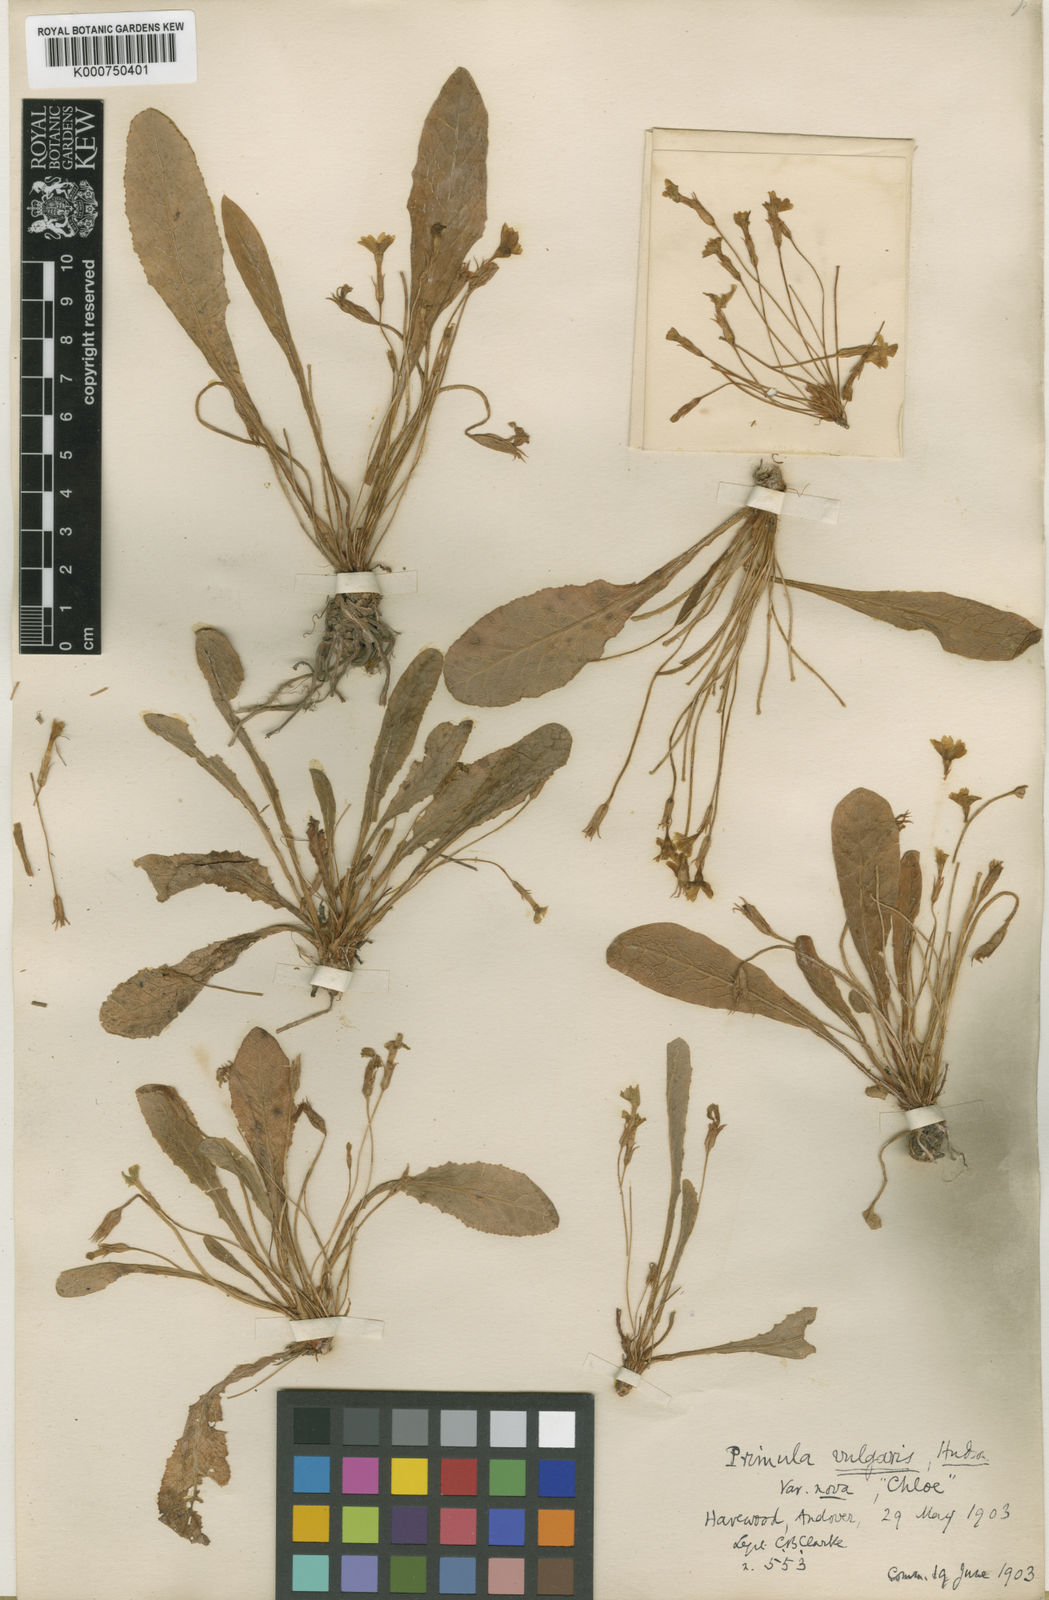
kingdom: Plantae
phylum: Tracheophyta
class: Magnoliopsida
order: Ericales
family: Primulaceae
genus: Primula
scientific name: Primula vulgaris
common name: Primrose
